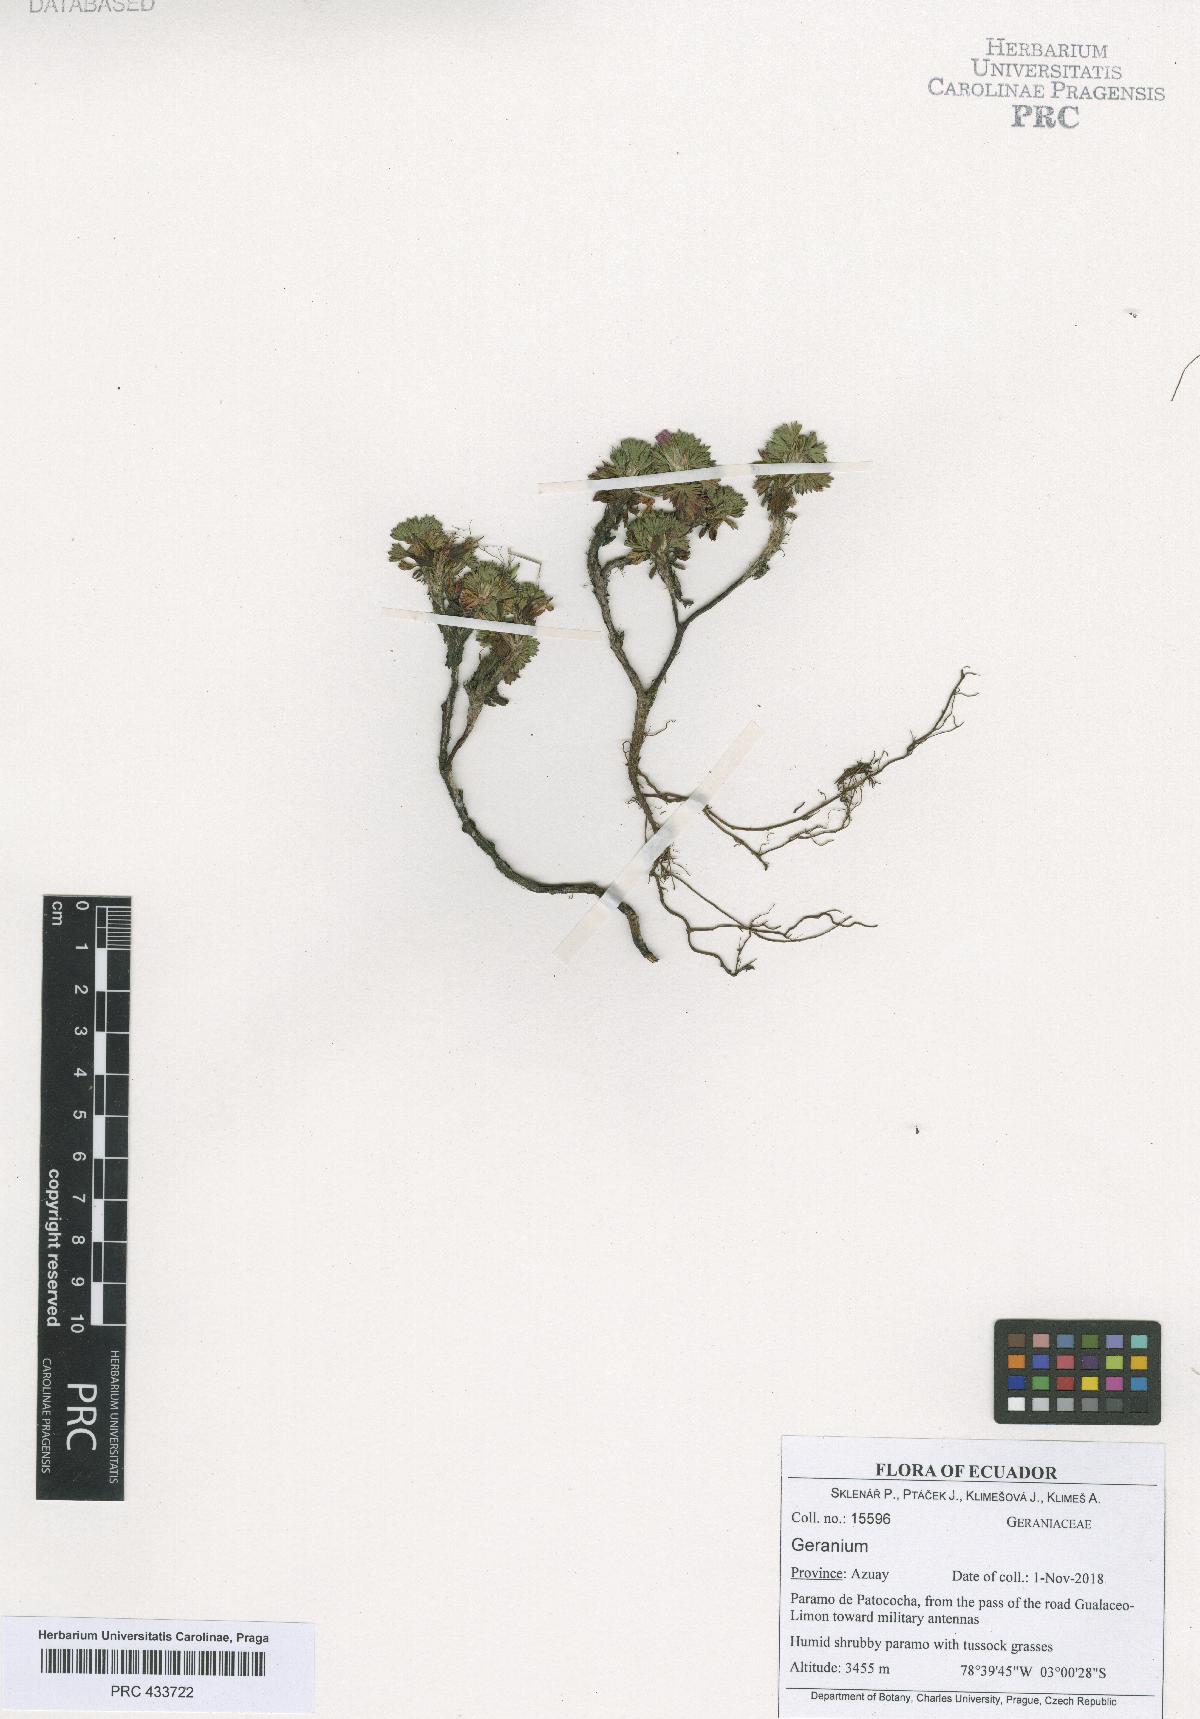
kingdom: Plantae
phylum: Tracheophyta
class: Magnoliopsida
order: Geraniales
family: Geraniaceae
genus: Geranium
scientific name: Geranium loxense
